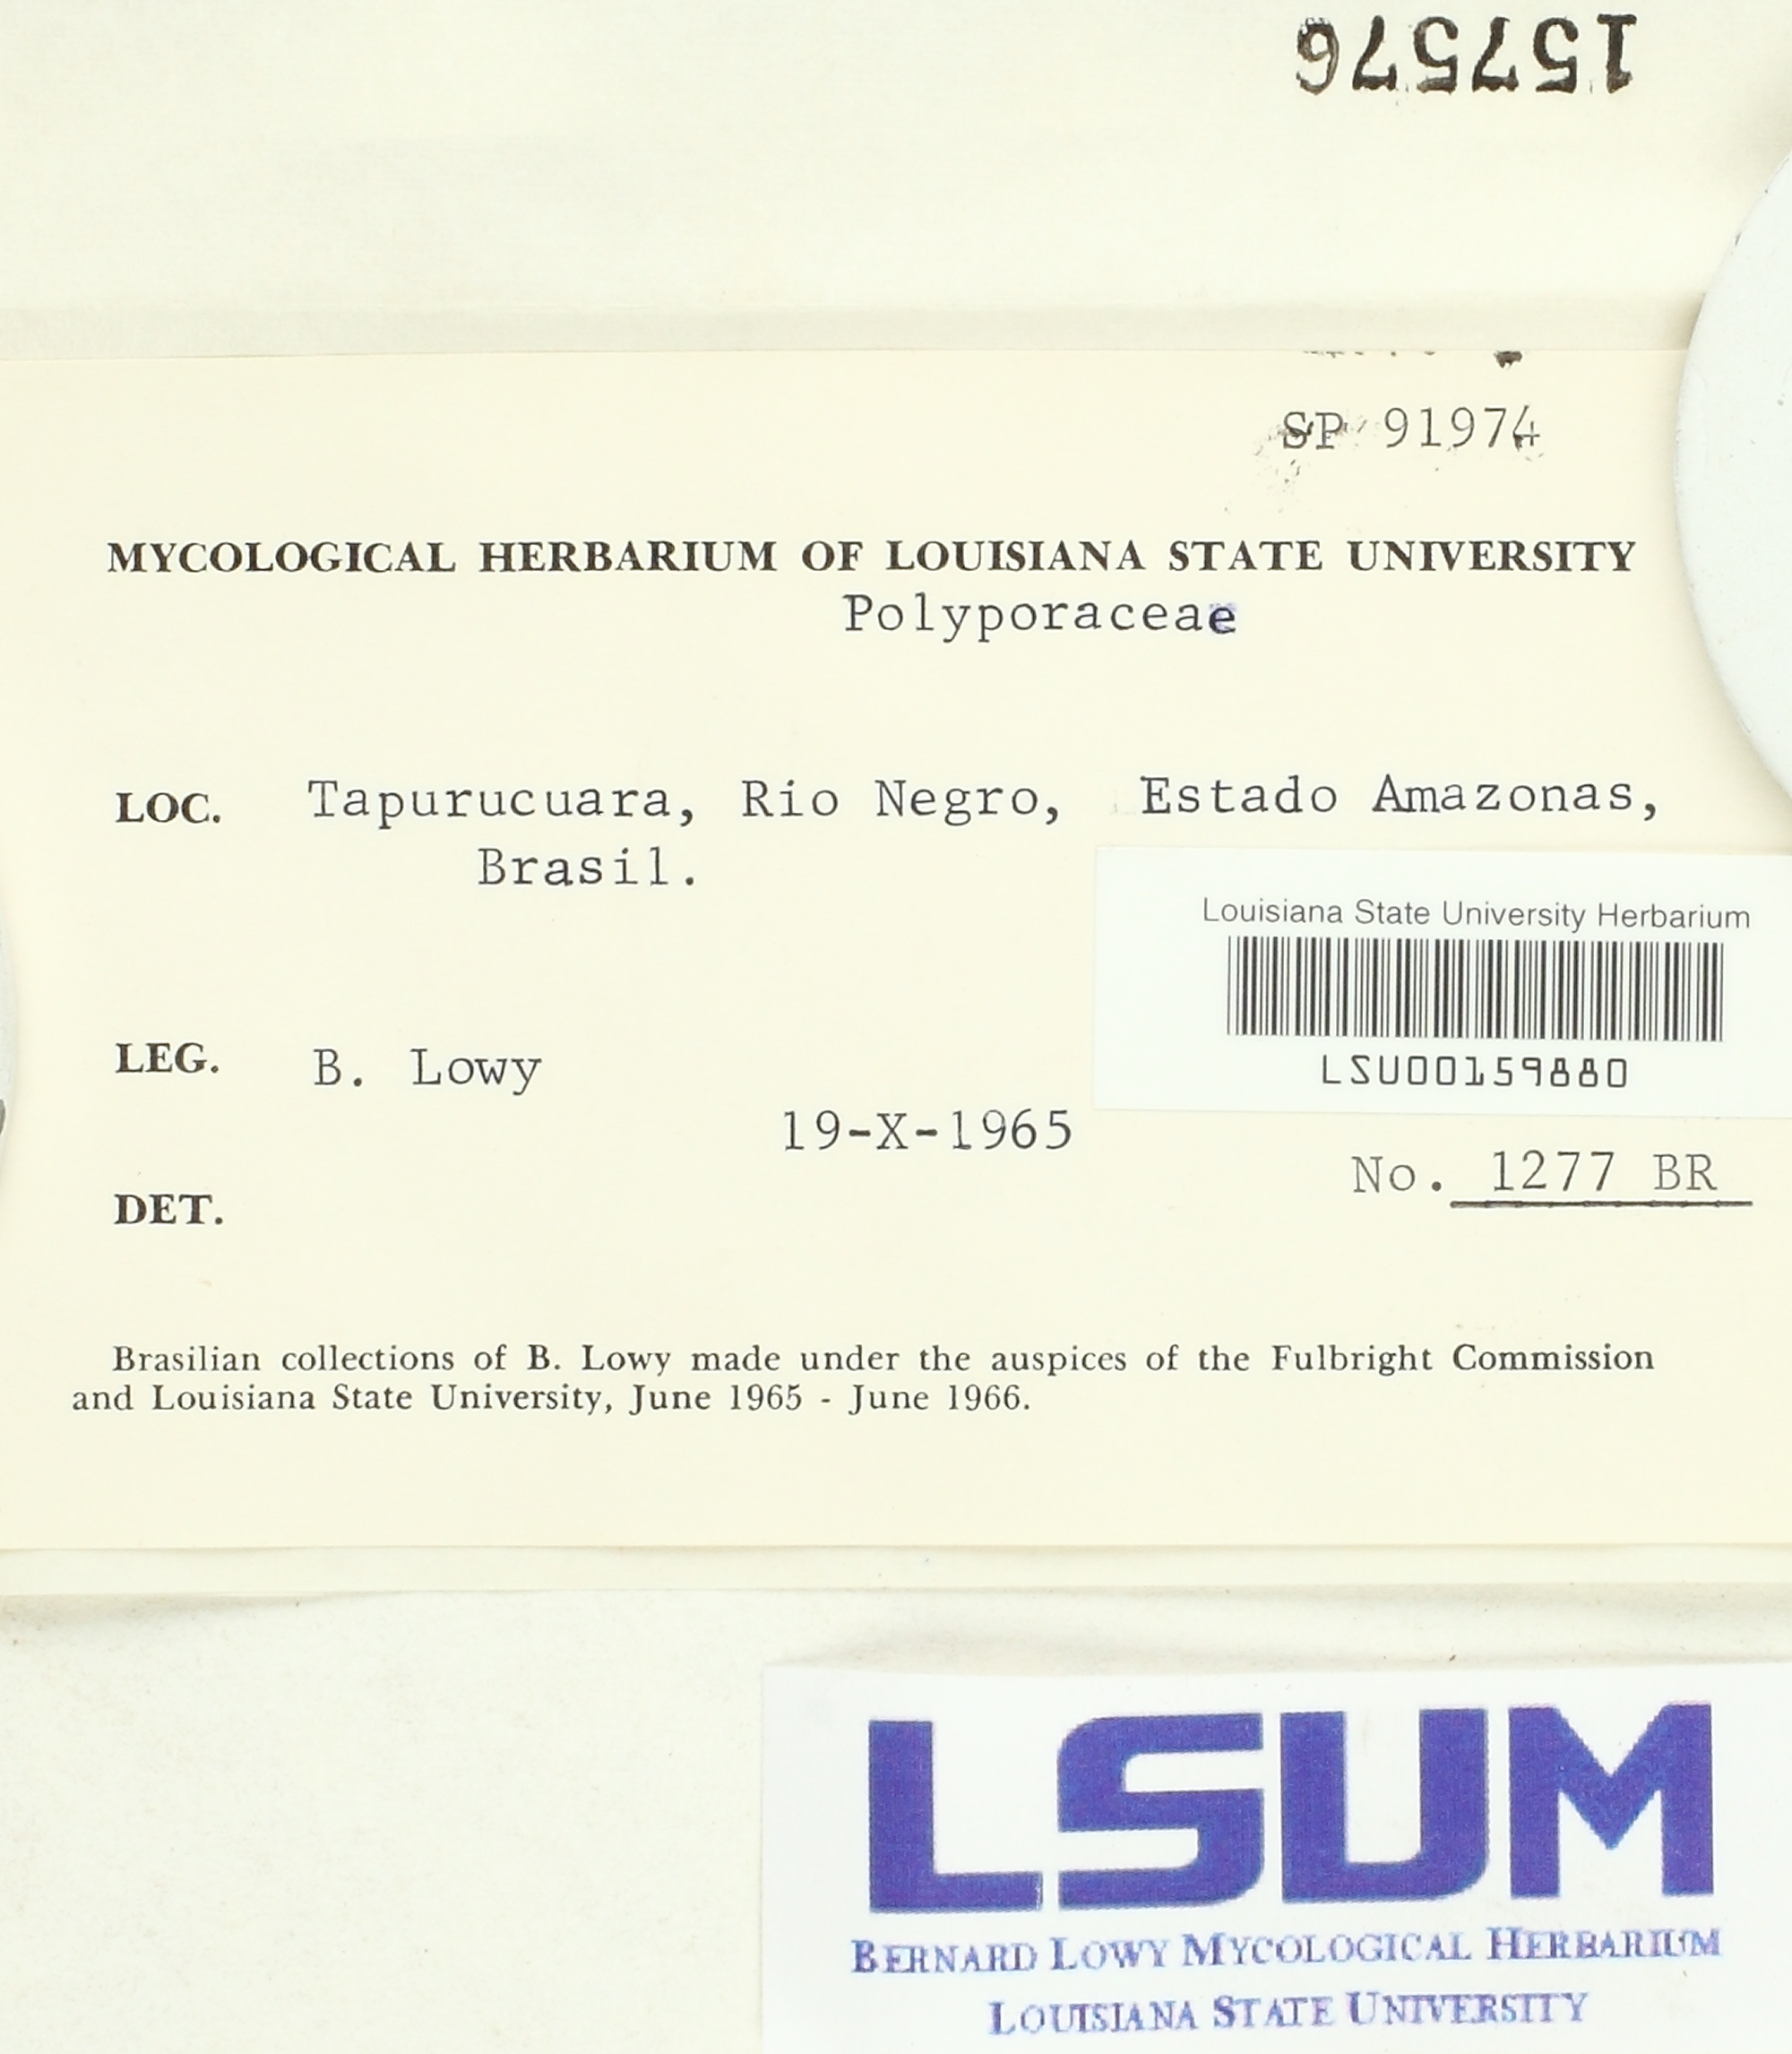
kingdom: Fungi
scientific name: Fungi
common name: Fungi
